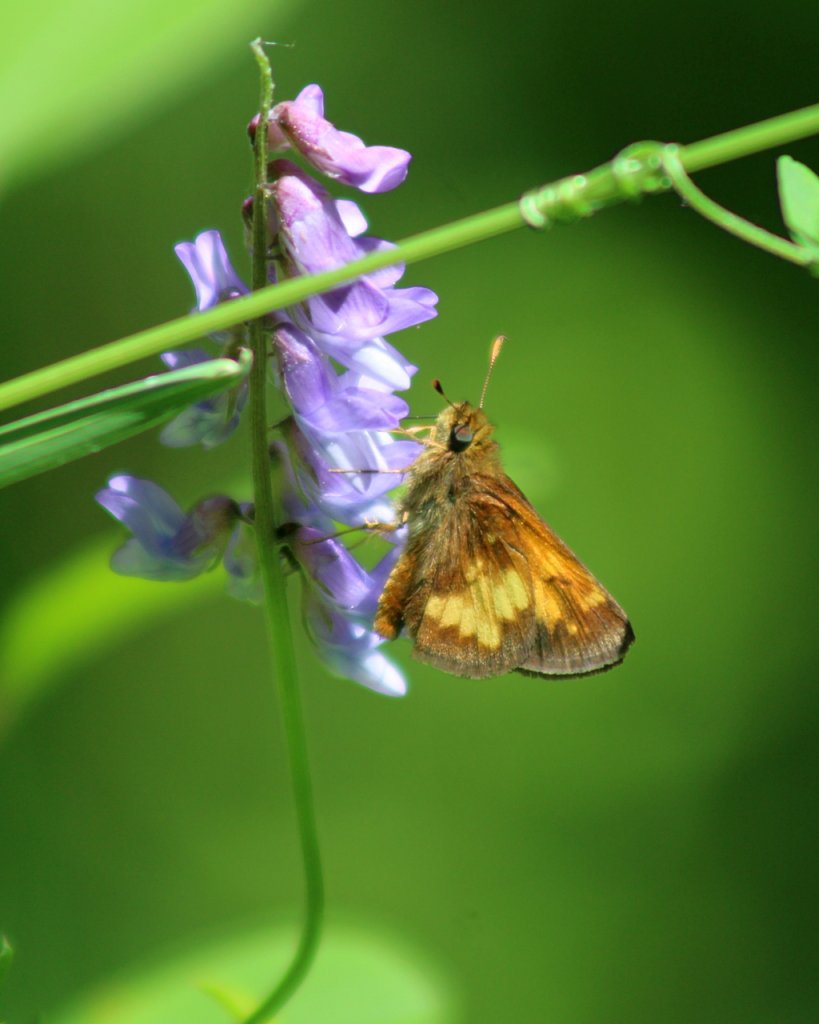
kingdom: Animalia
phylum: Arthropoda
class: Insecta
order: Lepidoptera
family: Hesperiidae
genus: Lon
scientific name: Lon hobomok
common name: Hobomok Skipper
